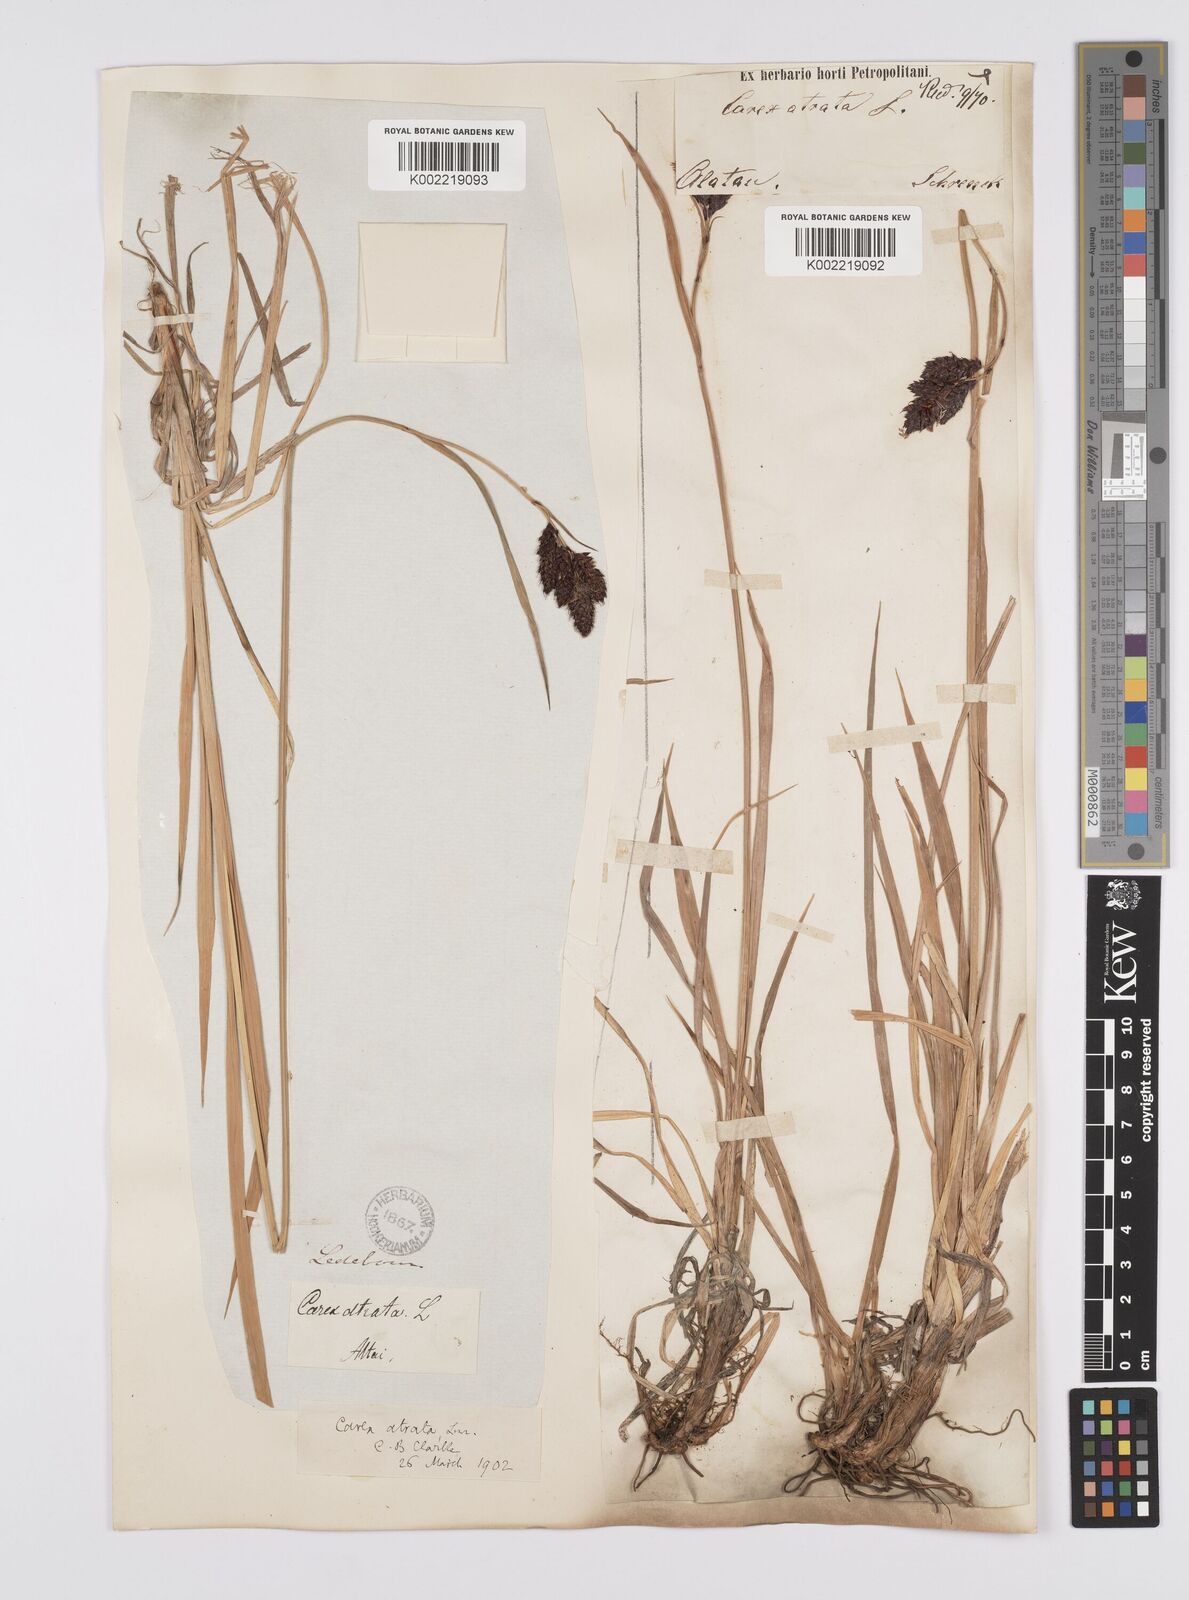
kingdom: Plantae
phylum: Tracheophyta
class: Liliopsida
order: Poales
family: Cyperaceae
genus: Carex
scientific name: Carex aterrima
